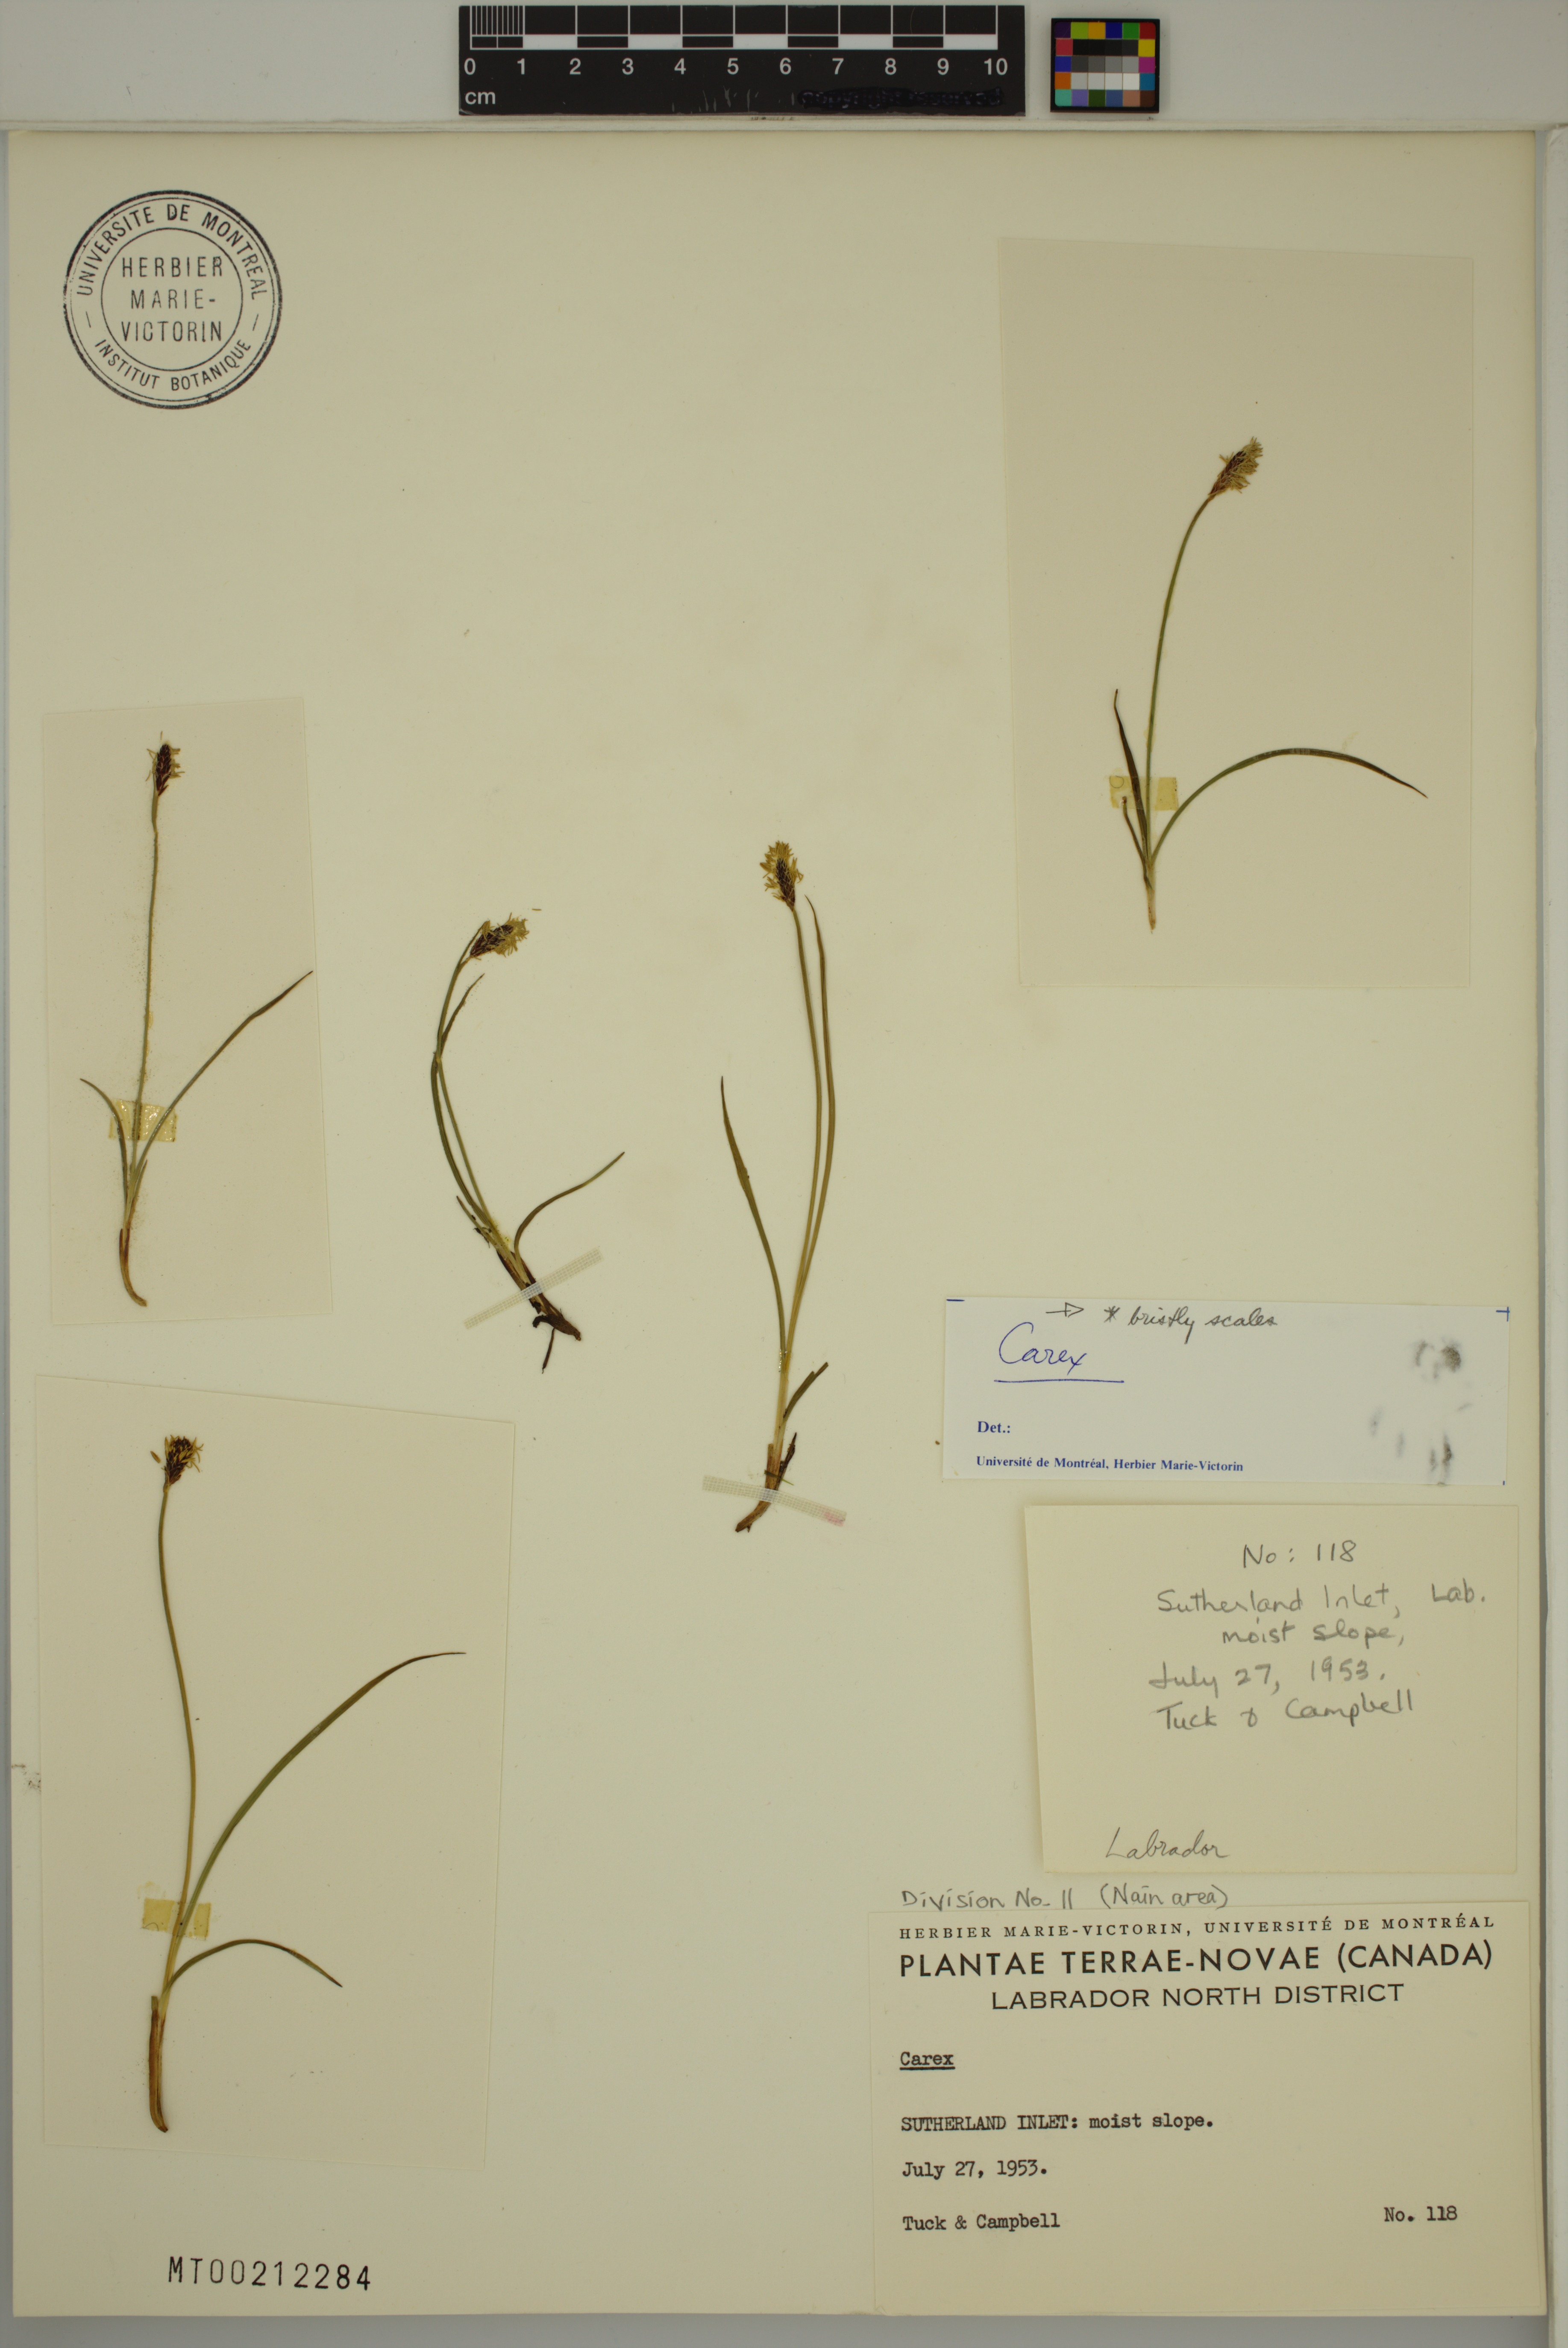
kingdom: Plantae
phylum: Tracheophyta
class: Liliopsida
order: Poales
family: Cyperaceae
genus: Carex
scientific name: Carex
